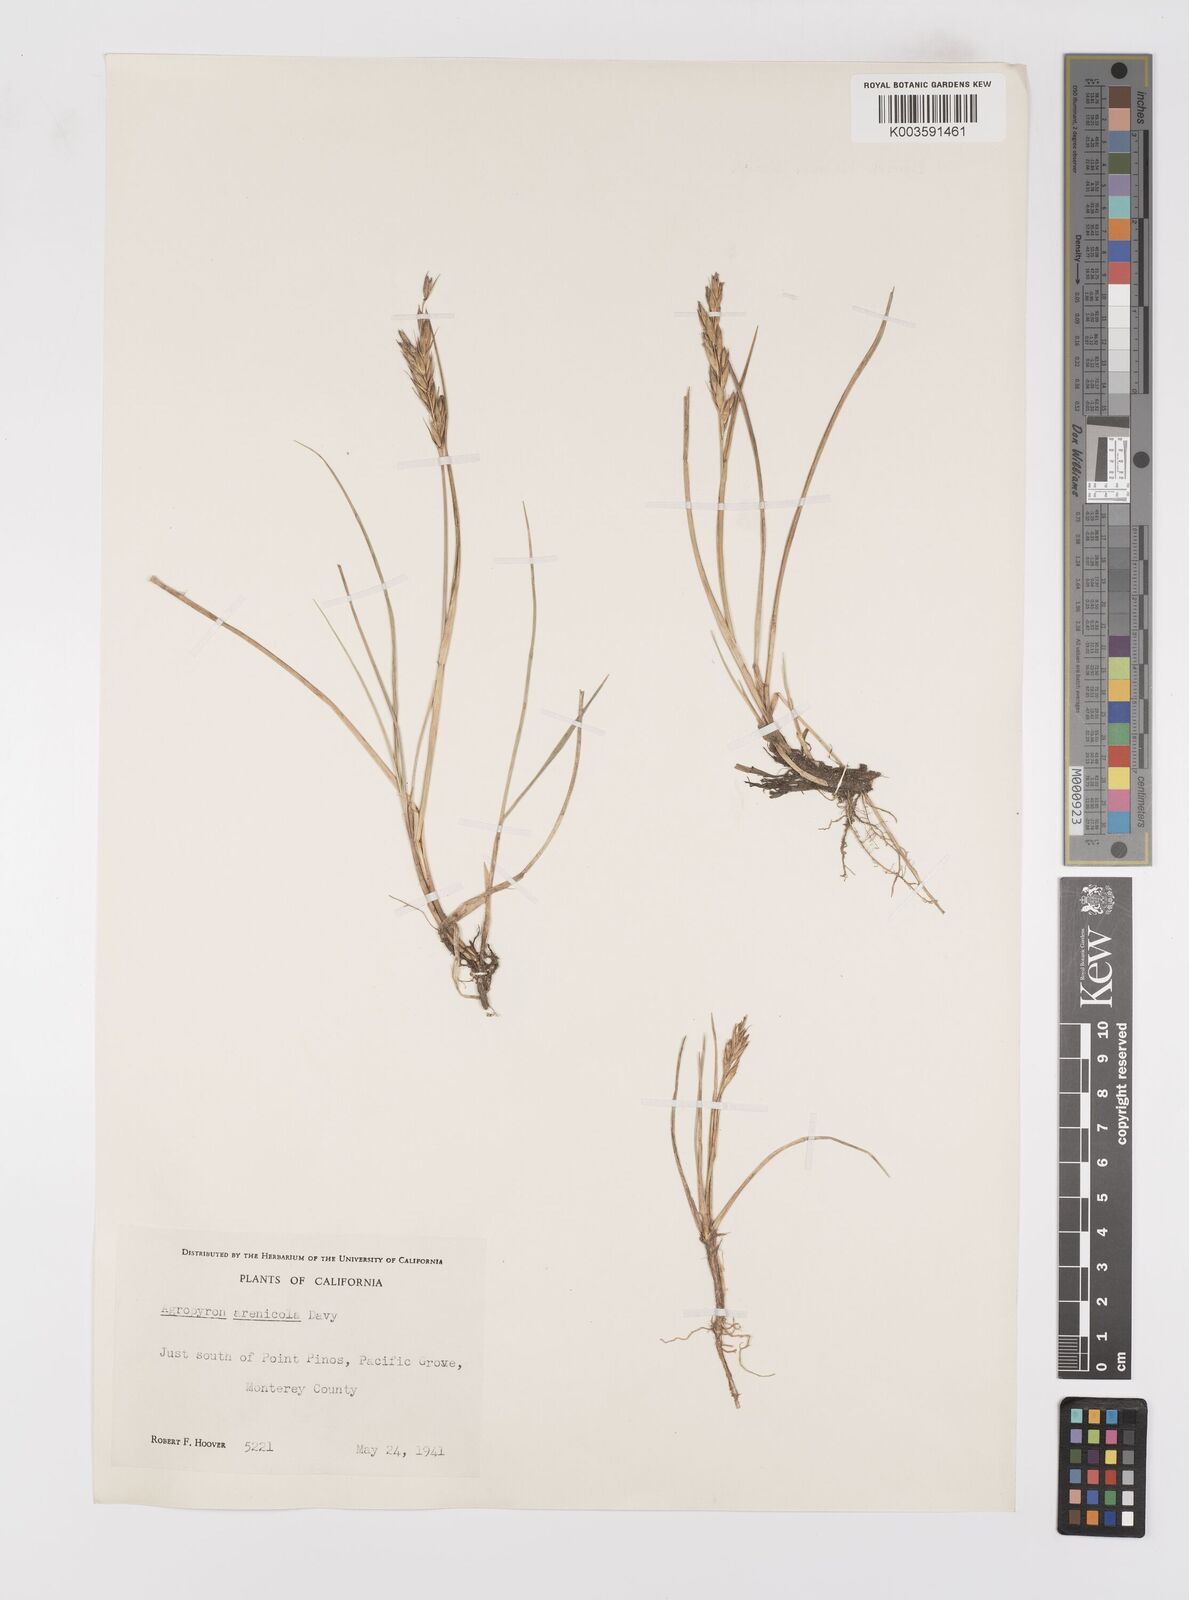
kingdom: Plantae
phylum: Tracheophyta
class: Liliopsida
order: Poales
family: Poaceae
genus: Leymus
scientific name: Leymus pacificus
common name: Pacific wild rye
